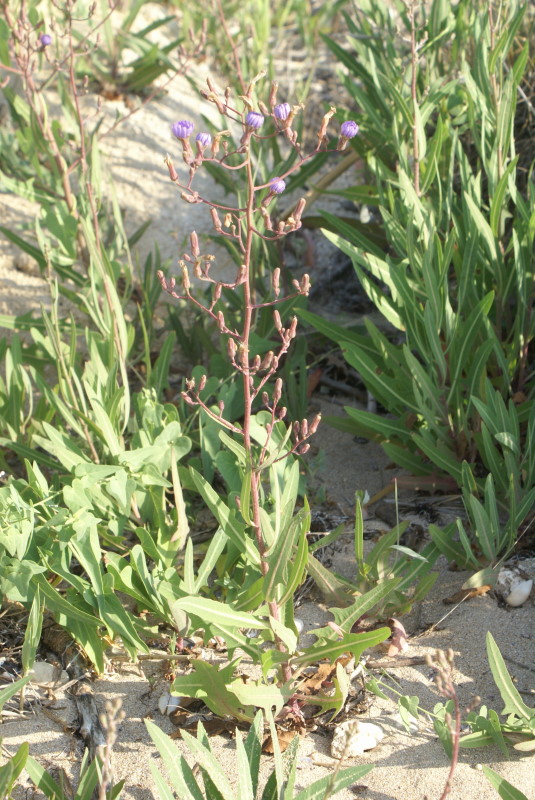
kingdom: Plantae
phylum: Tracheophyta
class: Magnoliopsida
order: Asterales
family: Asteraceae
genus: Cicerbita
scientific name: Cicerbita alpina
